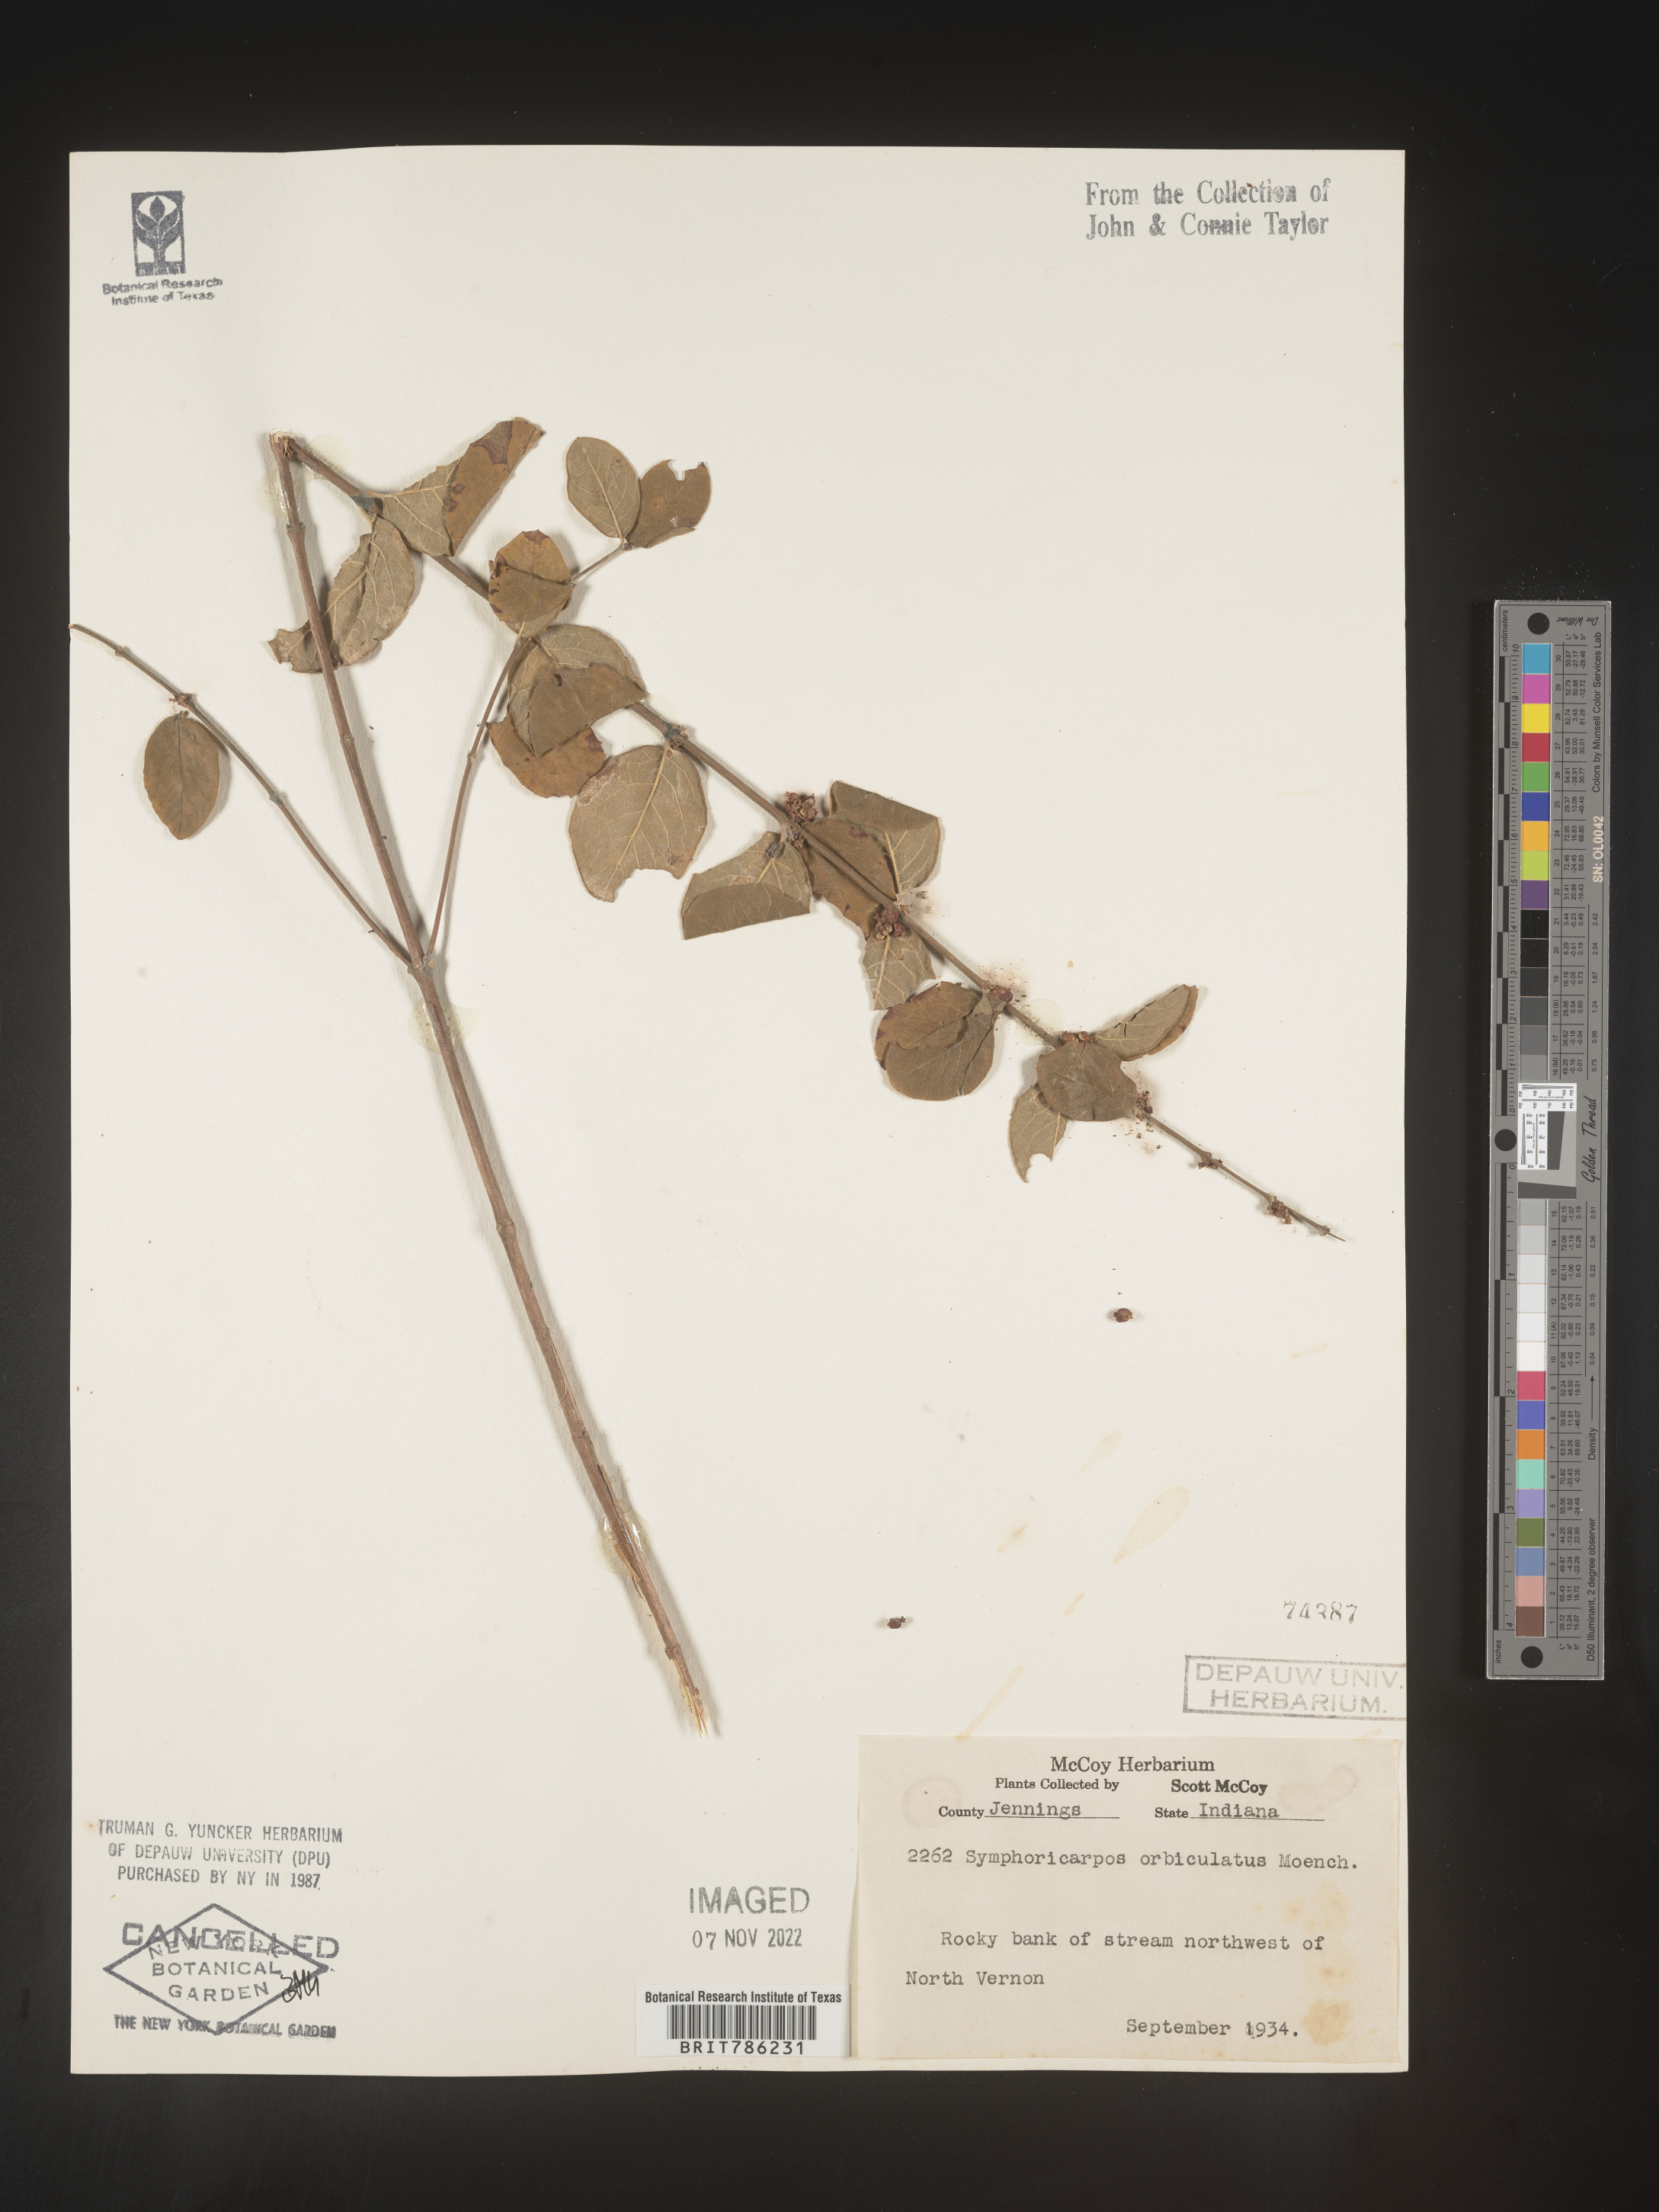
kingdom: Plantae
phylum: Tracheophyta
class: Magnoliopsida
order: Dipsacales
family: Caprifoliaceae
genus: Symphoricarpos
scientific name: Symphoricarpos orbiculatus
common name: Coralberry
